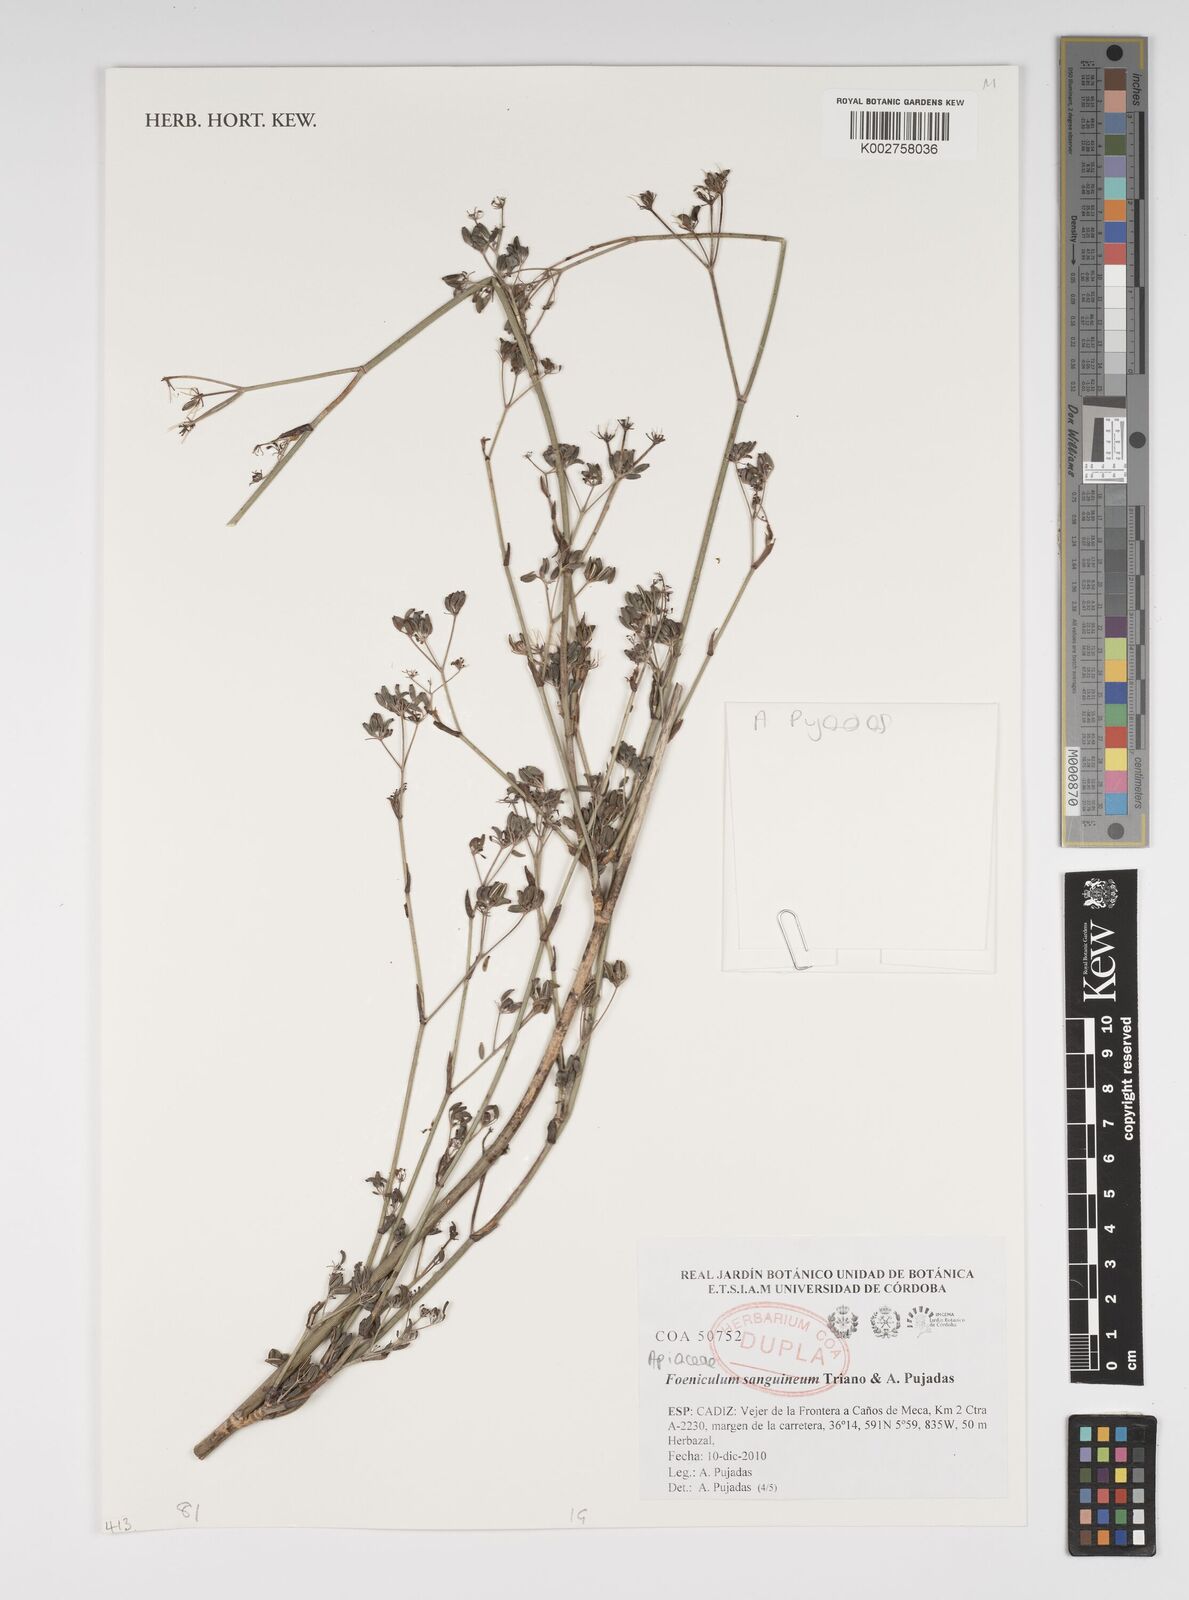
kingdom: Plantae
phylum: Tracheophyta
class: Magnoliopsida
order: Apiales
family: Apiaceae
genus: Anethum
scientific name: Anethum sanguineum
